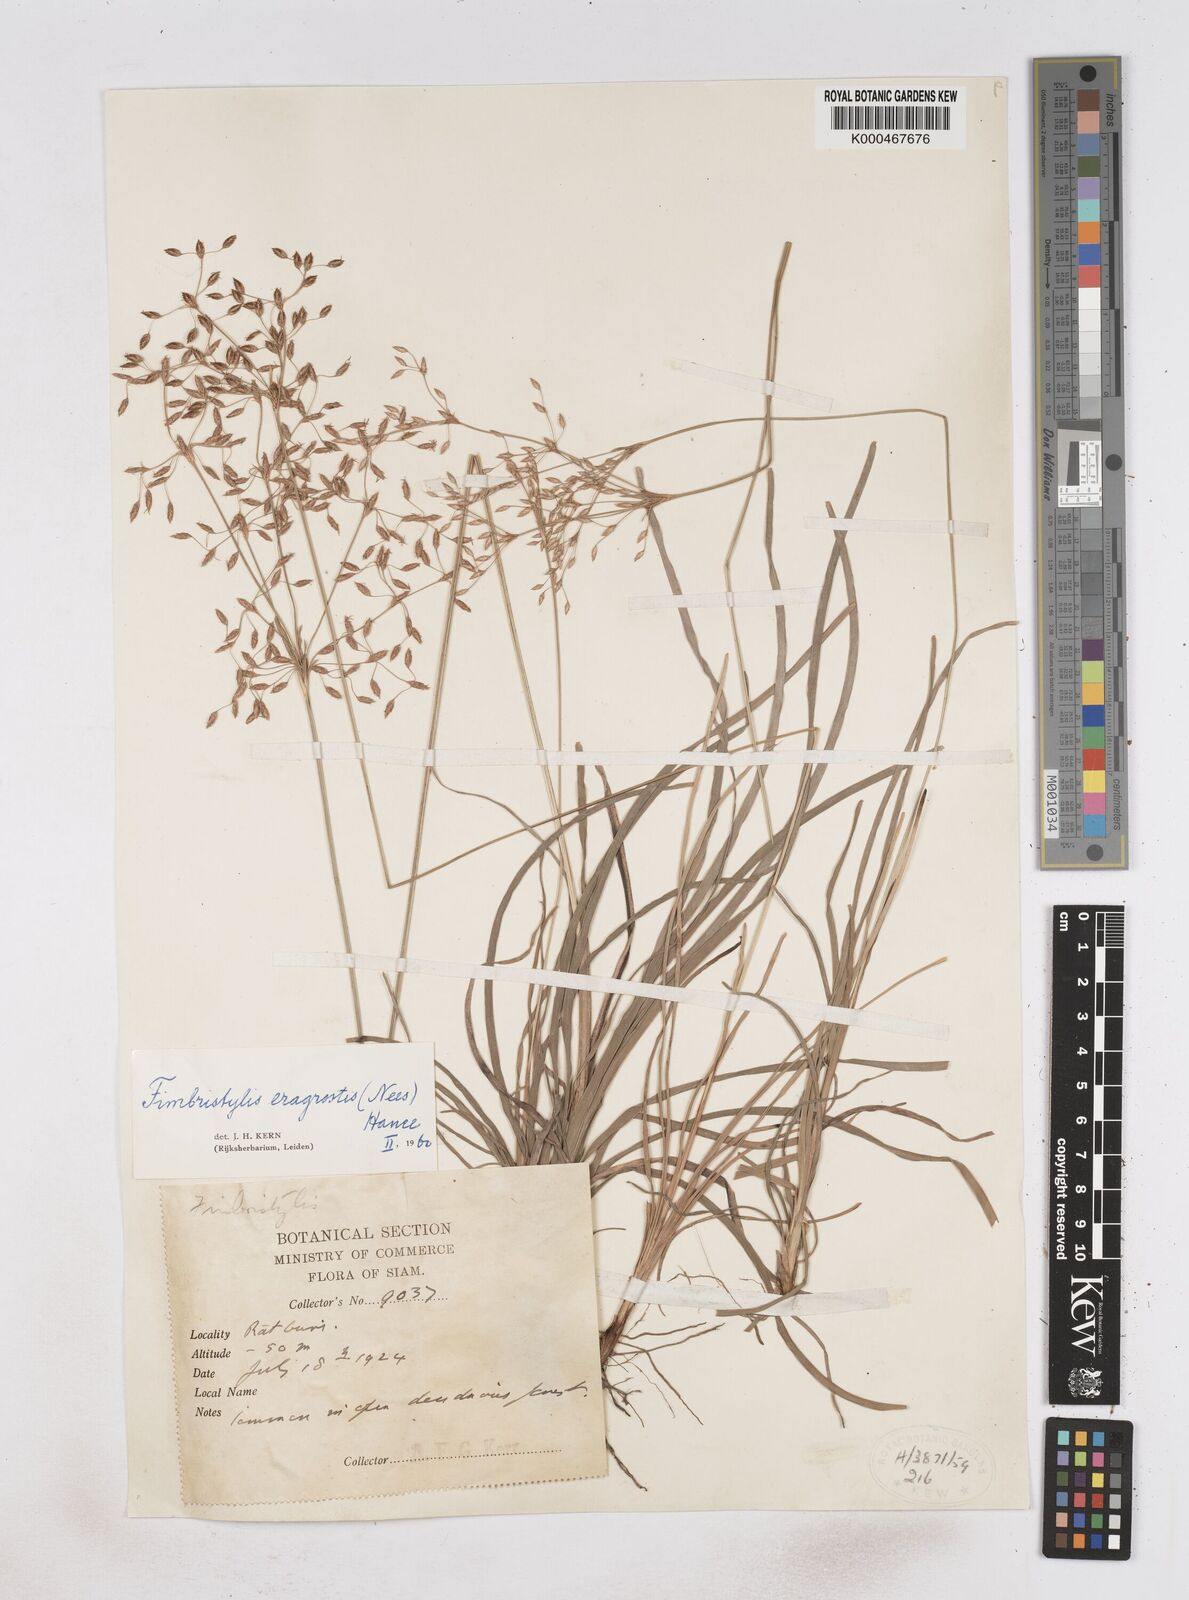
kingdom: Plantae
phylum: Tracheophyta
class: Liliopsida
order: Poales
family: Cyperaceae
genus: Fimbristylis
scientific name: Fimbristylis eragrostis
